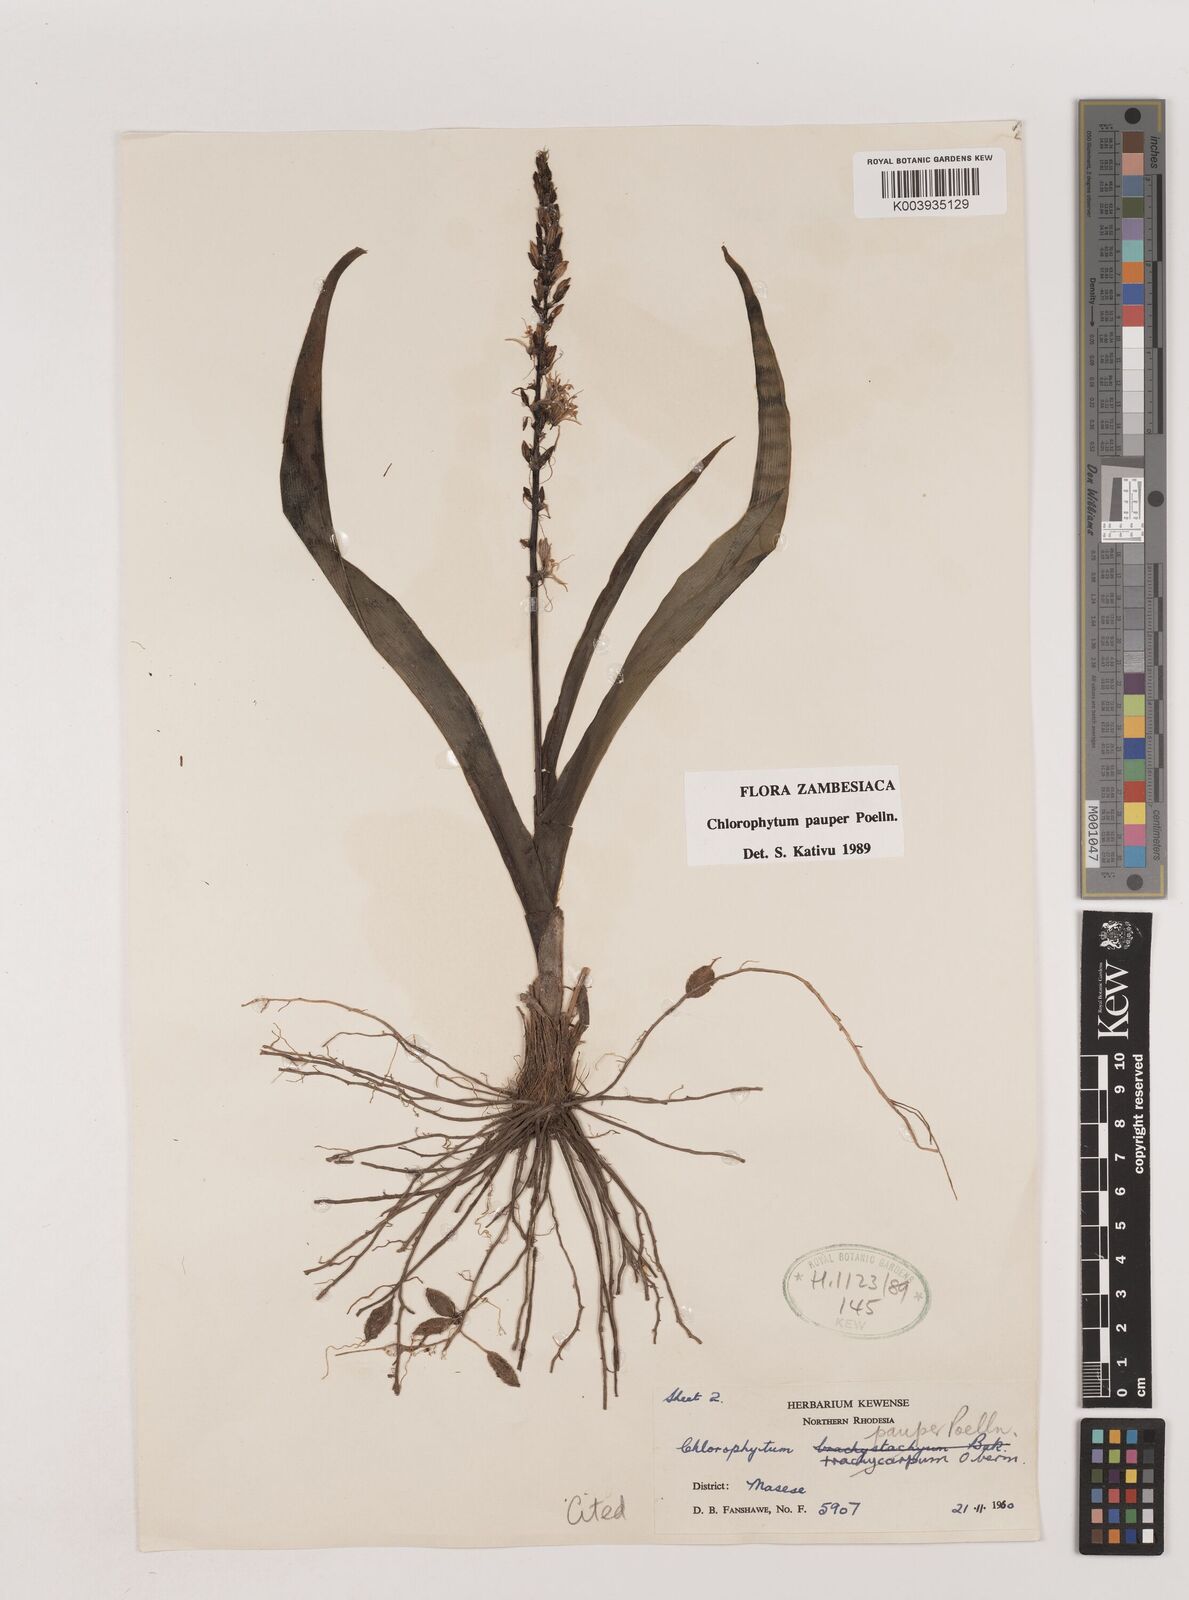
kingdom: Plantae
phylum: Tracheophyta
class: Liliopsida
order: Asparagales
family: Asparagaceae
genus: Chlorophytum
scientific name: Chlorophytum pauper
